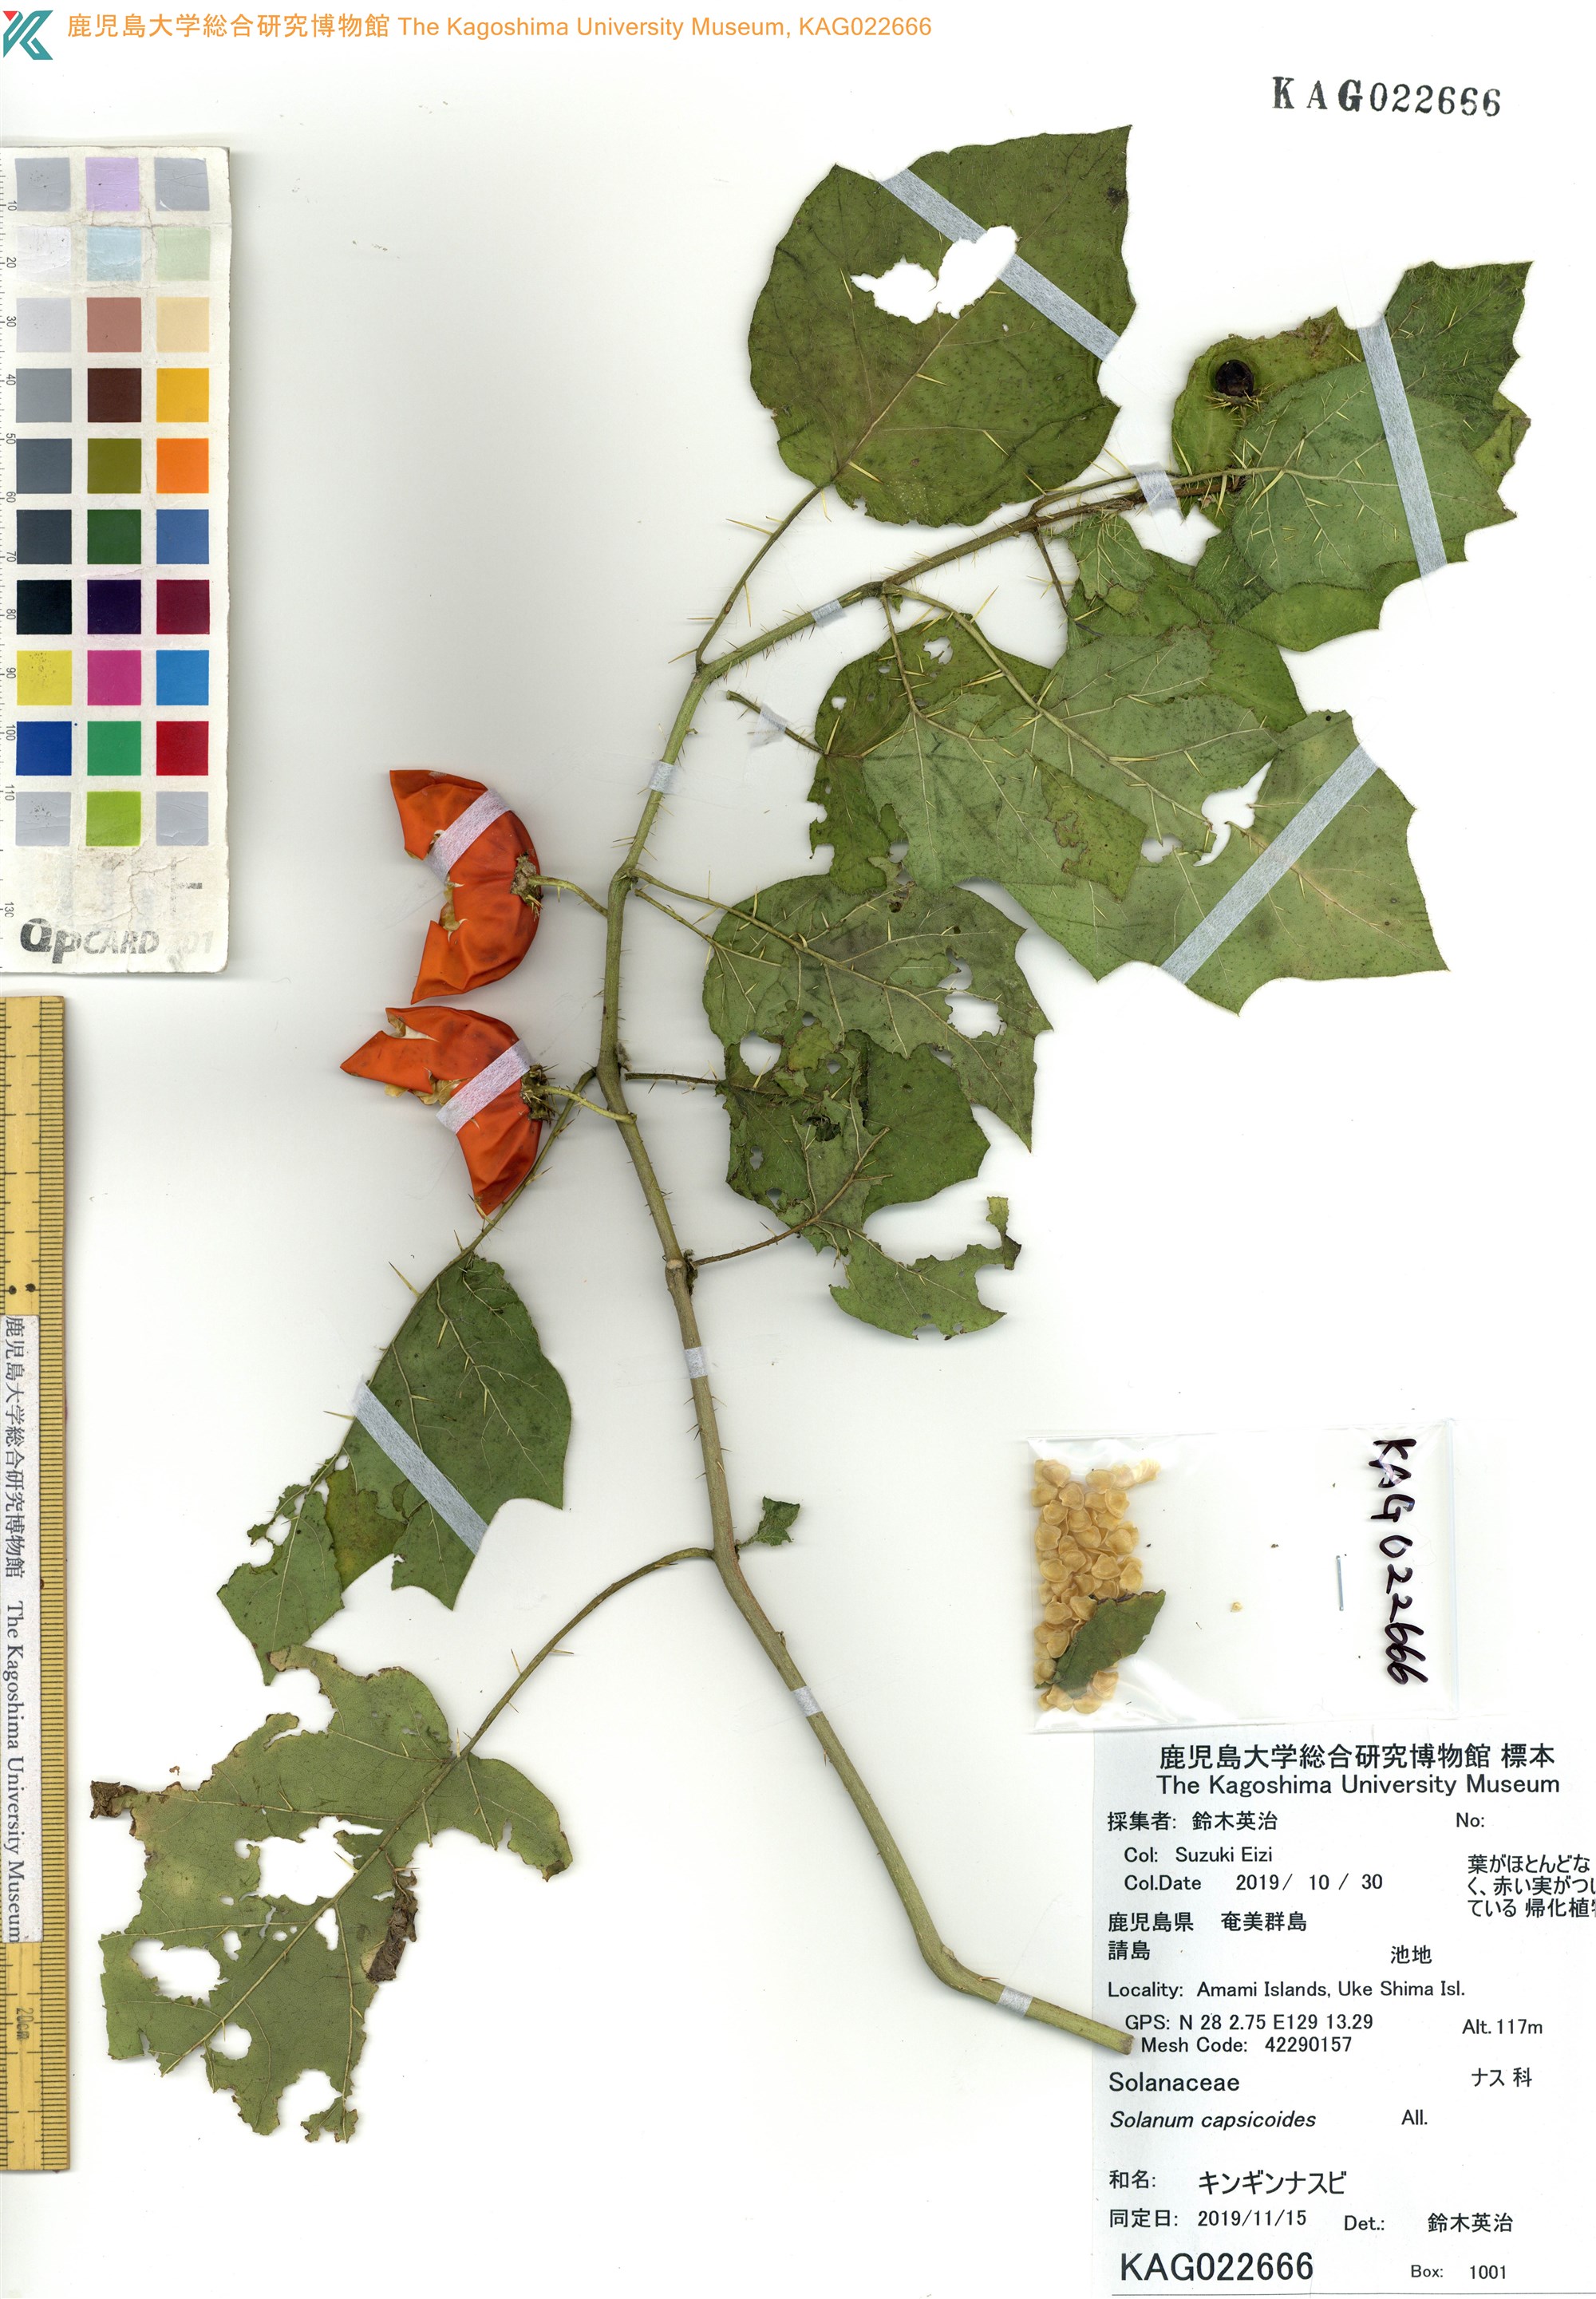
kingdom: Plantae
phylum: Tracheophyta
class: Magnoliopsida
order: Solanales
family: Solanaceae
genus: Solanum
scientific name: Solanum capsicoides
